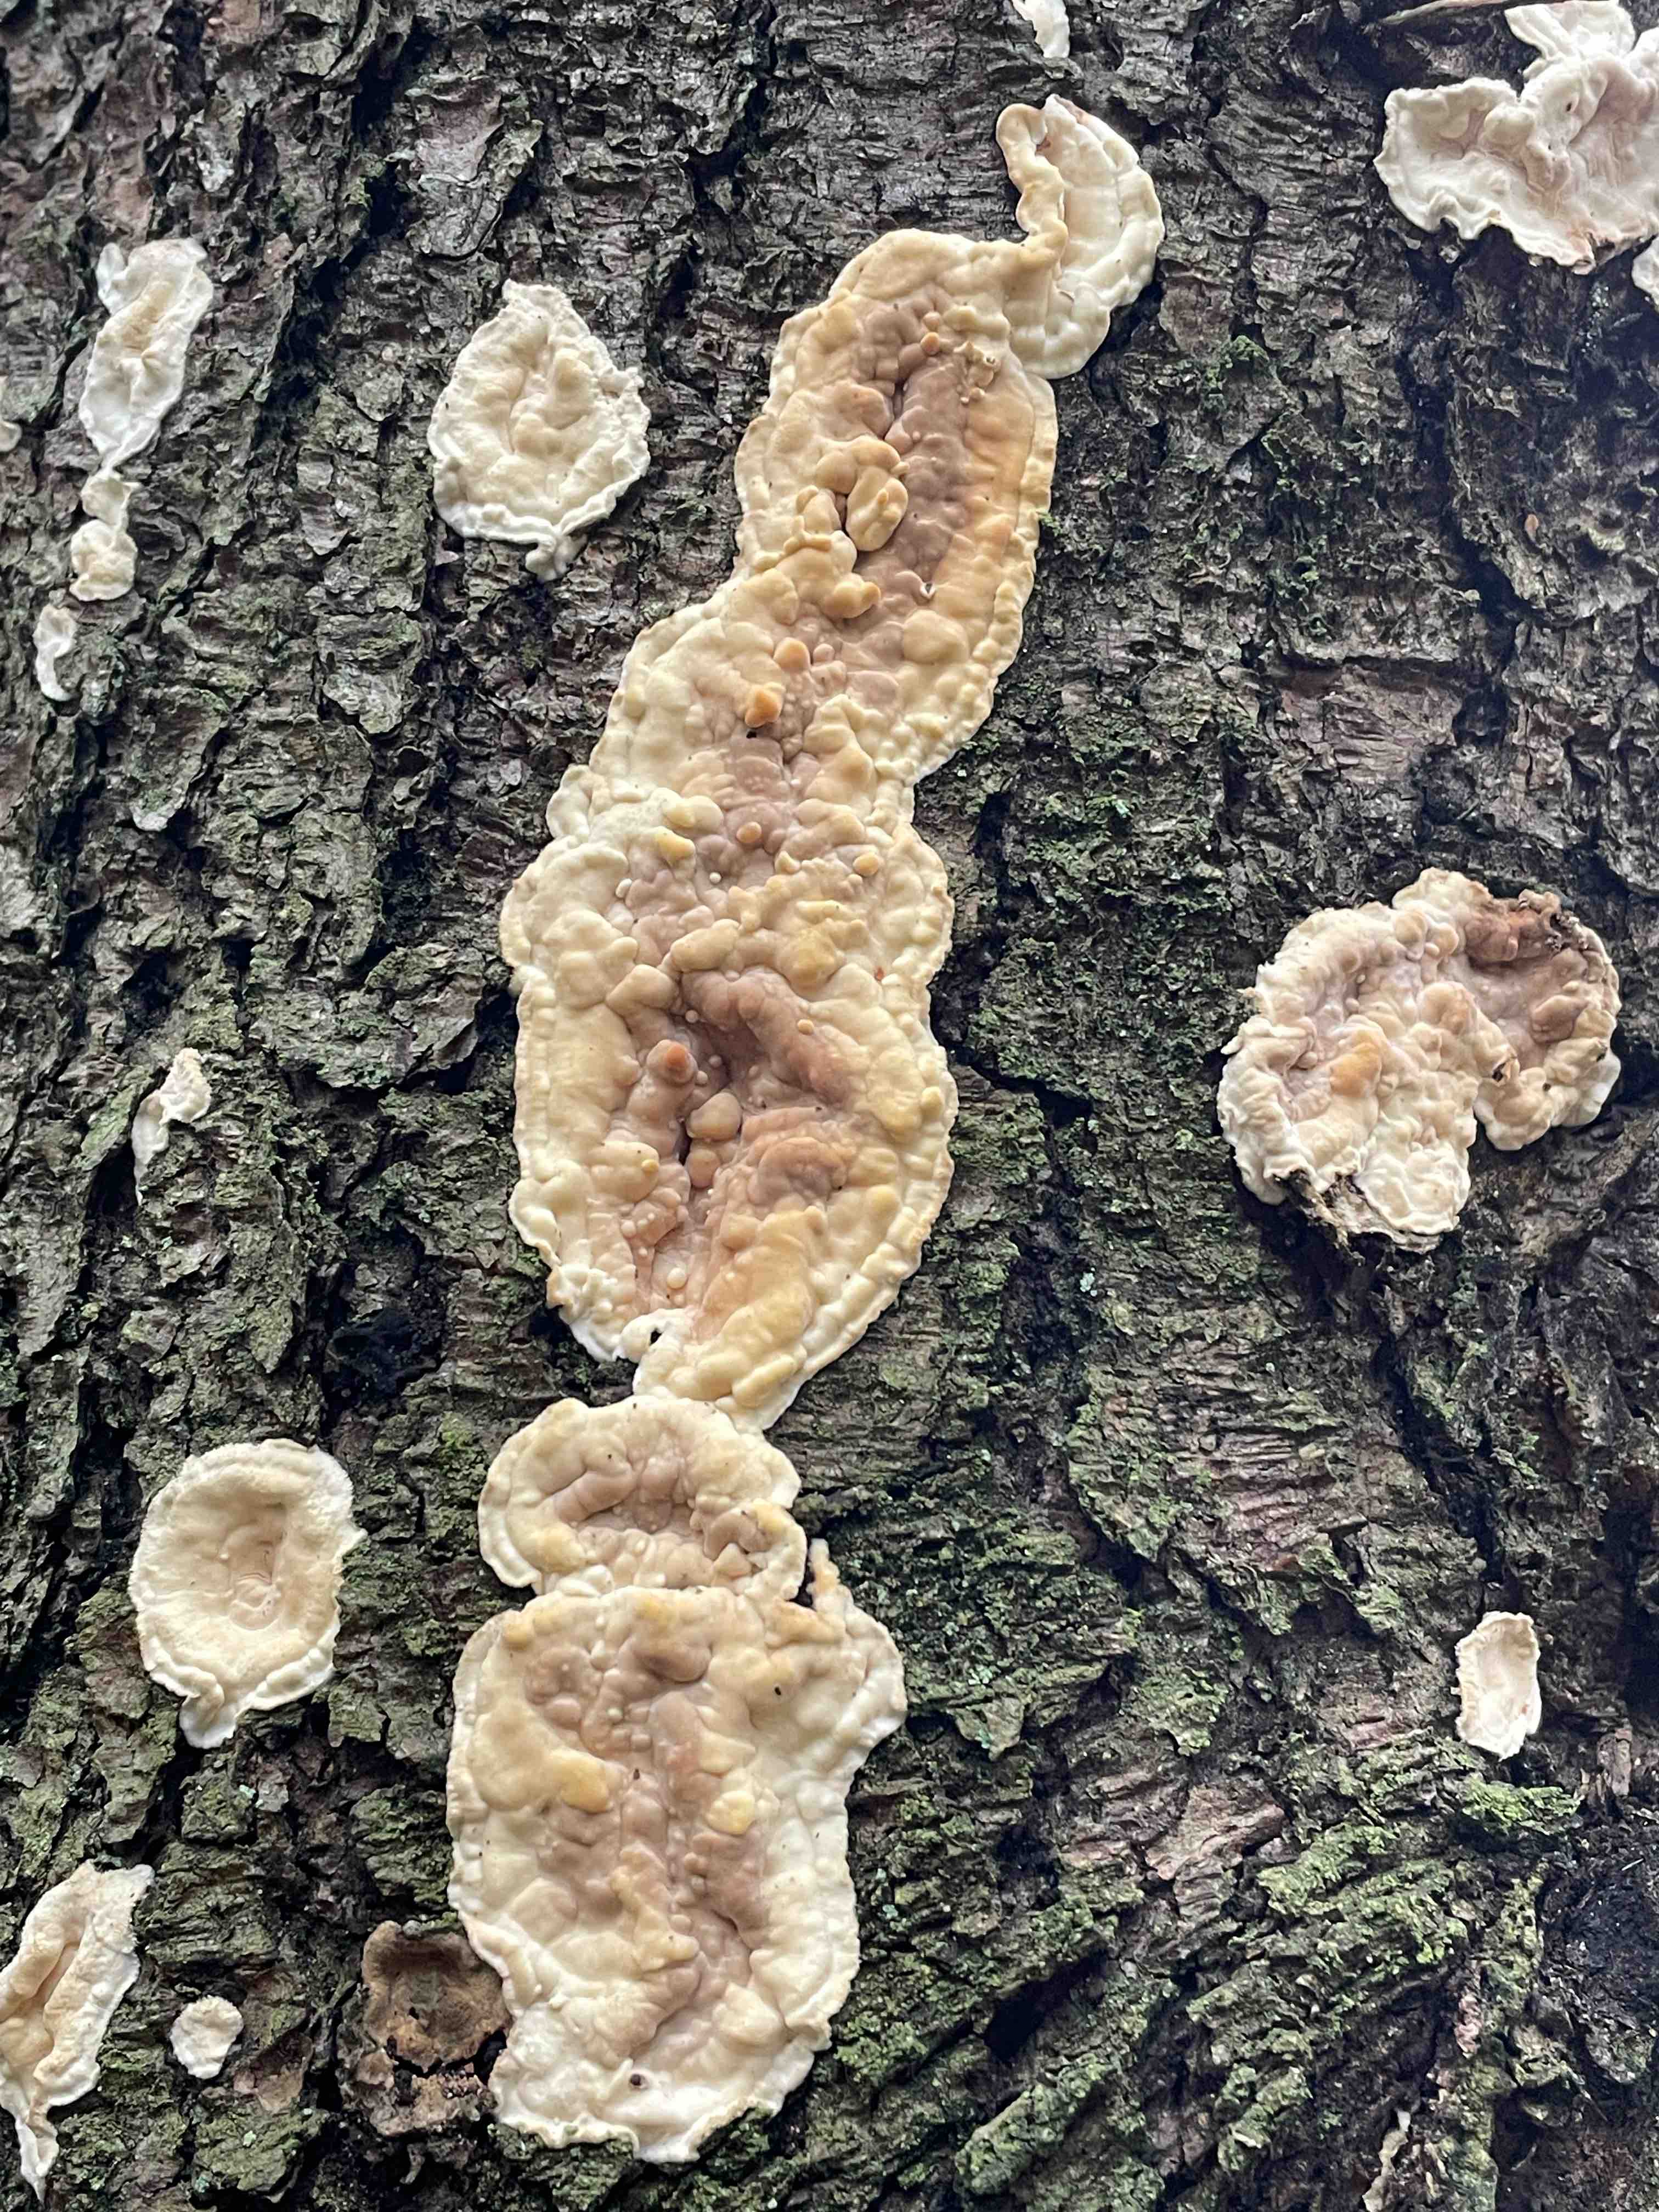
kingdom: Fungi
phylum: Basidiomycota
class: Agaricomycetes
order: Polyporales
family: Dacryobolaceae
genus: Dacryobolus
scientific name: Dacryobolus karstenii
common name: glat vulkanskorpe
